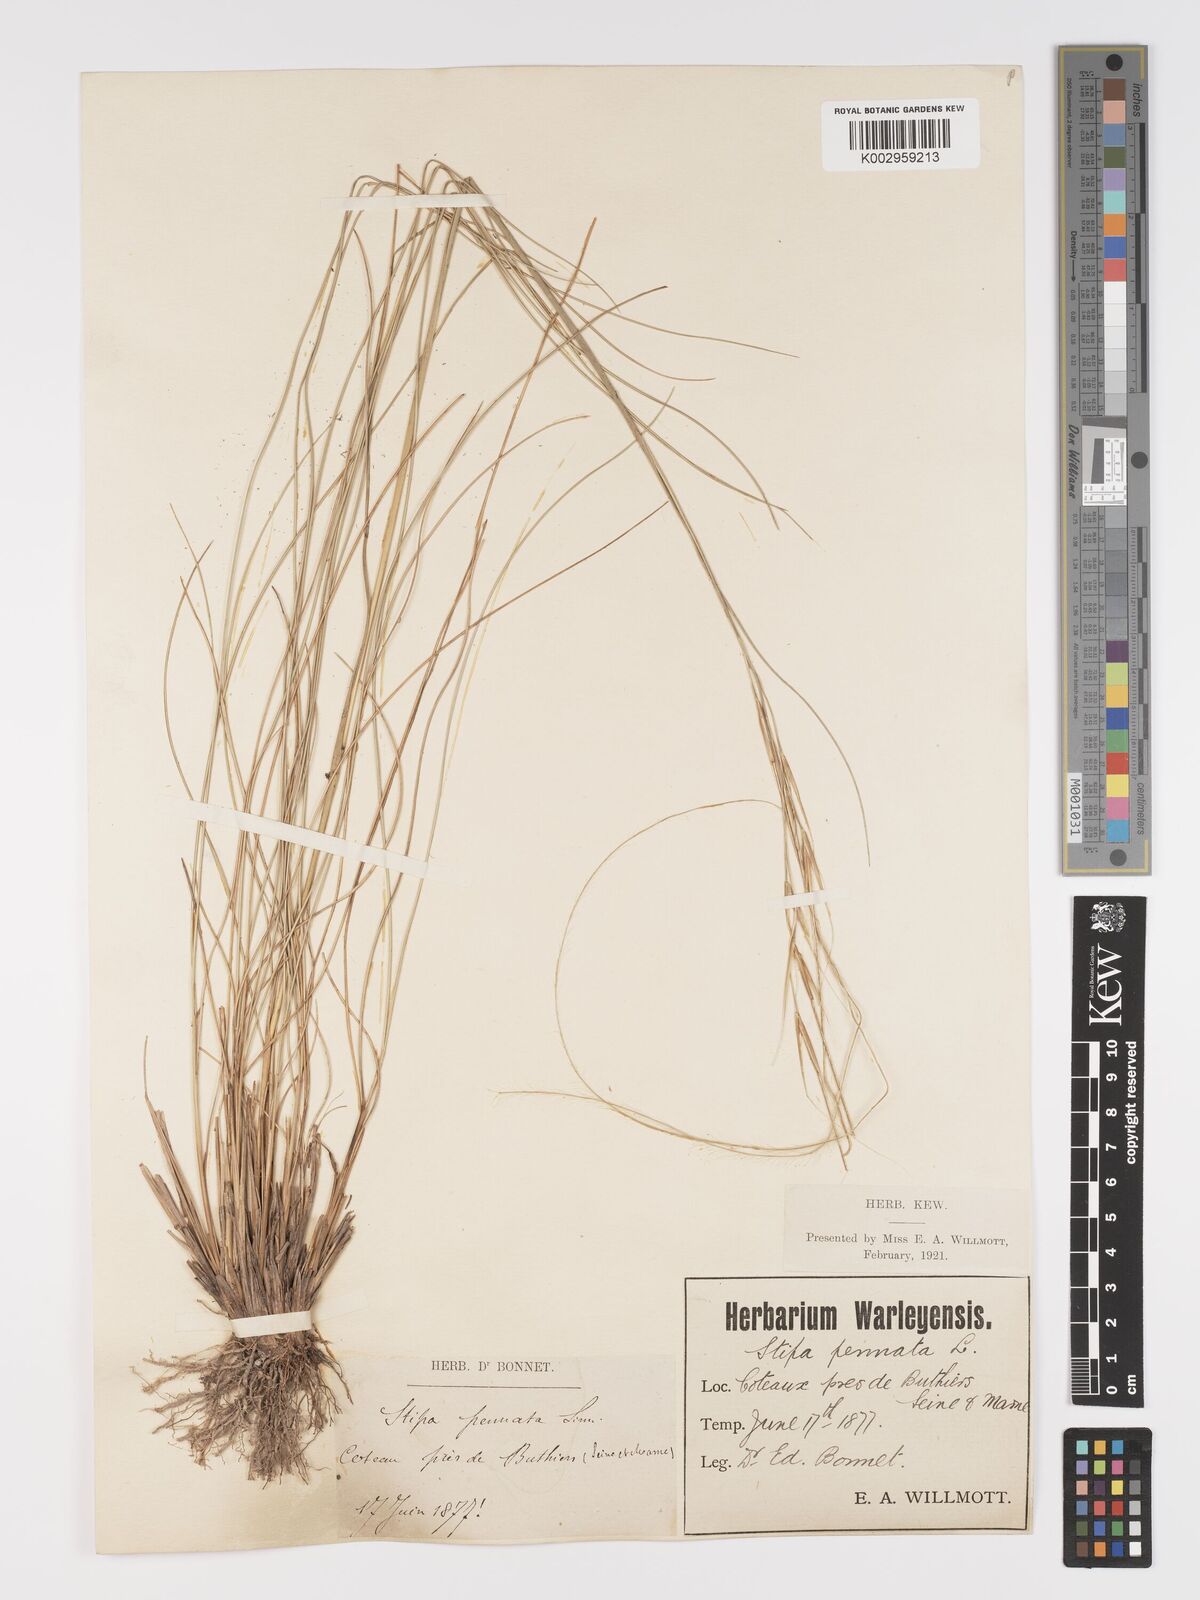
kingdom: Plantae
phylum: Tracheophyta
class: Liliopsida
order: Poales
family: Poaceae
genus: Stipa
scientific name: Stipa pennata
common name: European feather grass
